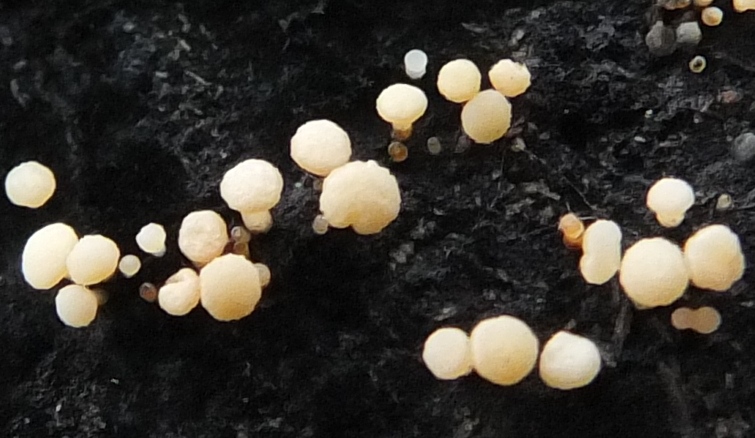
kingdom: Fungi
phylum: Ascomycota
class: Leotiomycetes
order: Helotiales
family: Helotiaceae
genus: Bispora
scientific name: Bispora pallescens
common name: måtte-snitskive
